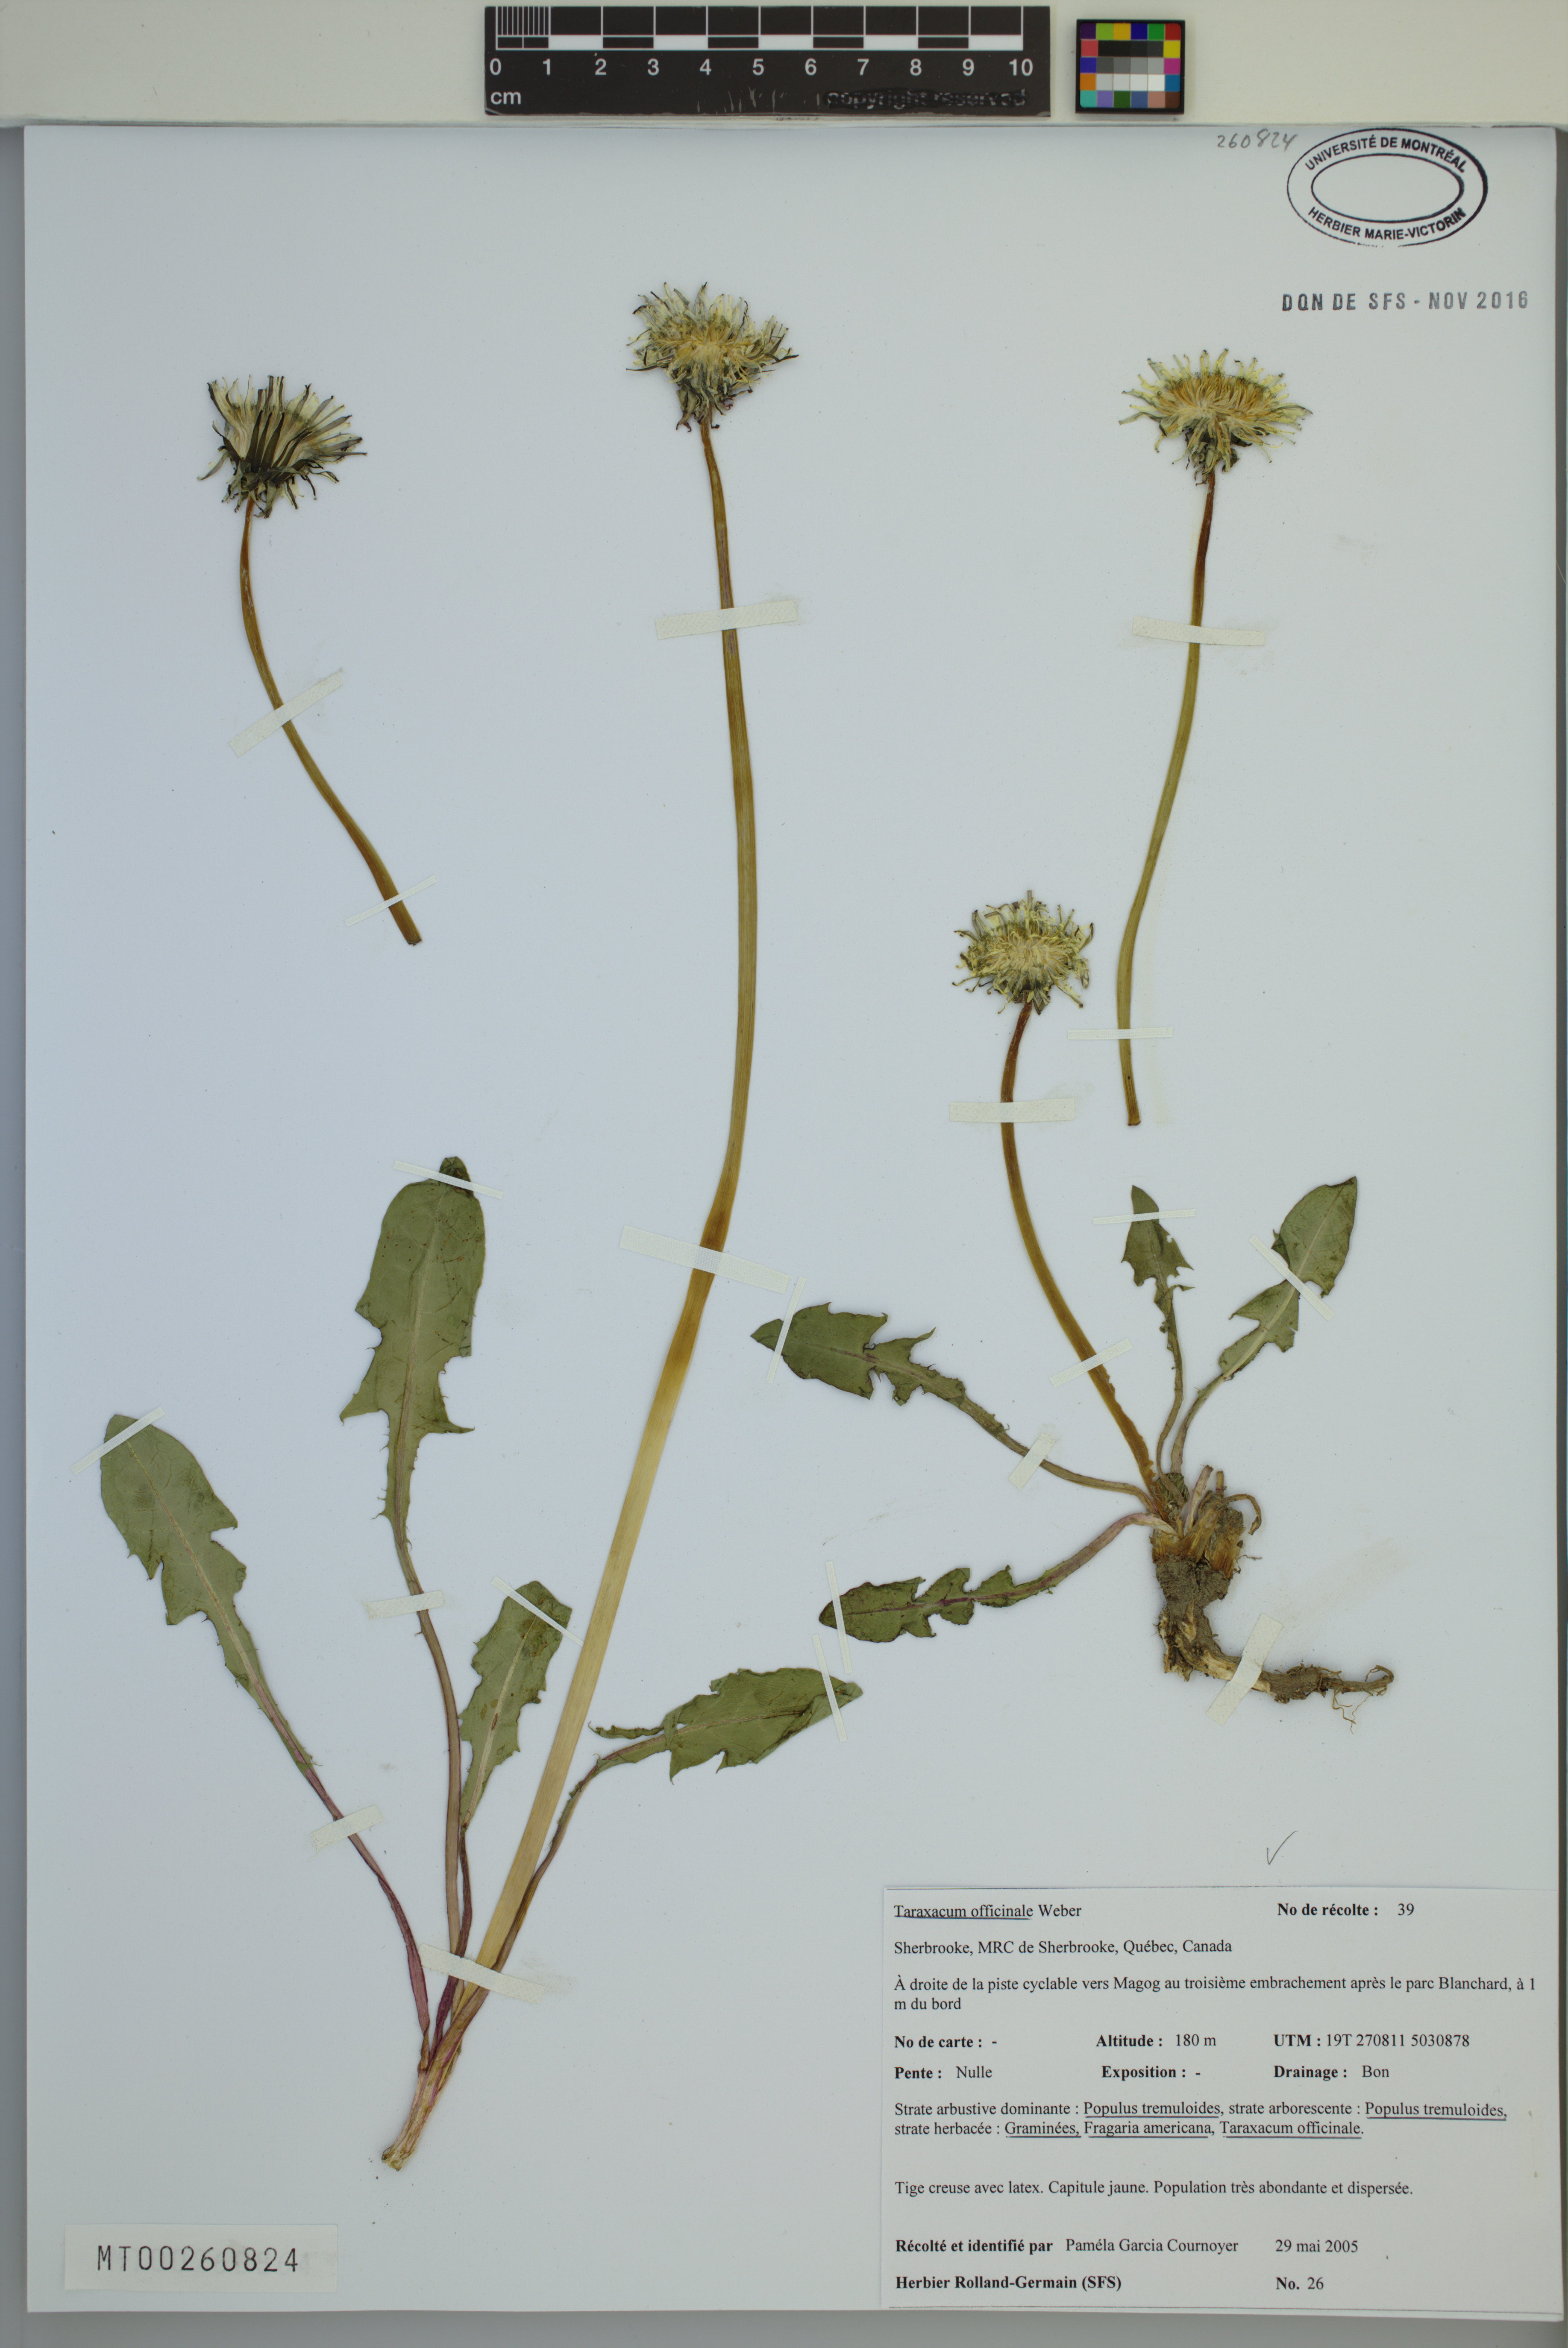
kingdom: Plantae
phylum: Tracheophyta
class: Magnoliopsida
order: Asterales
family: Asteraceae
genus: Taraxacum
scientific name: Taraxacum officinale
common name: Common dandelion
